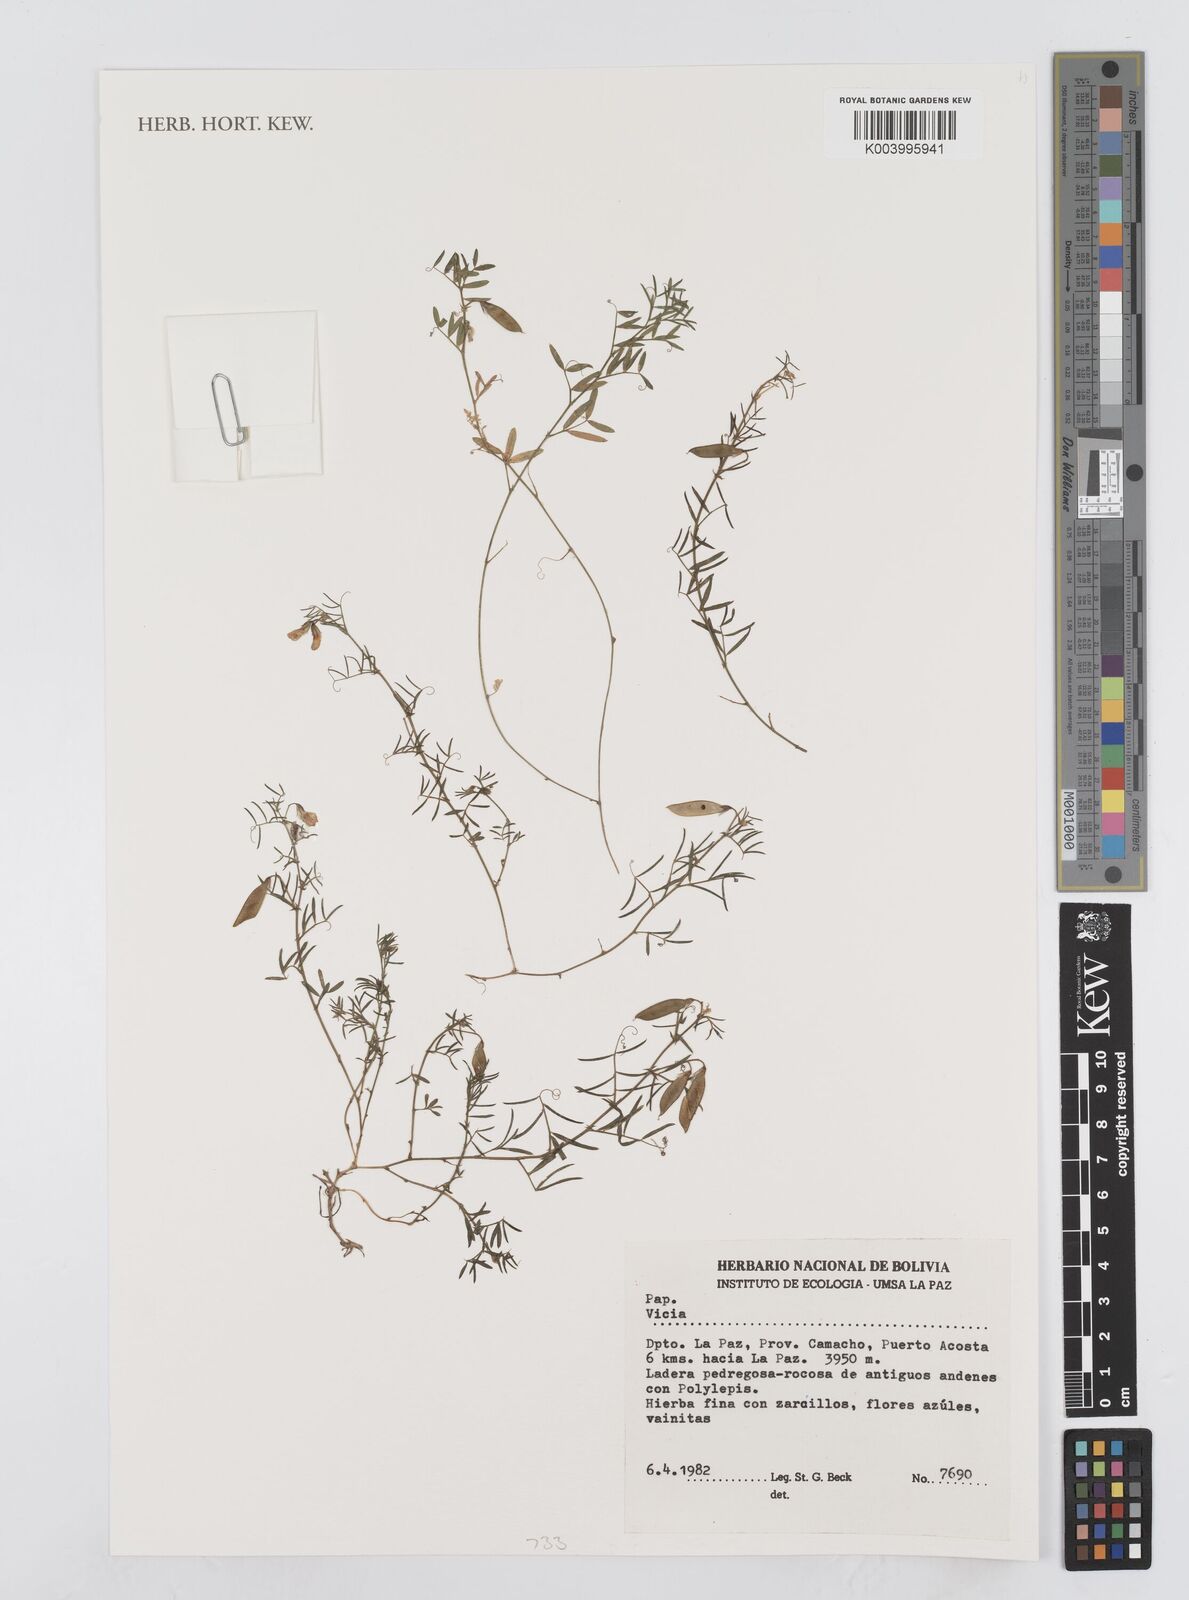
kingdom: Plantae
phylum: Tracheophyta
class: Magnoliopsida
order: Fabales
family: Fabaceae
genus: Vicia
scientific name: Vicia
